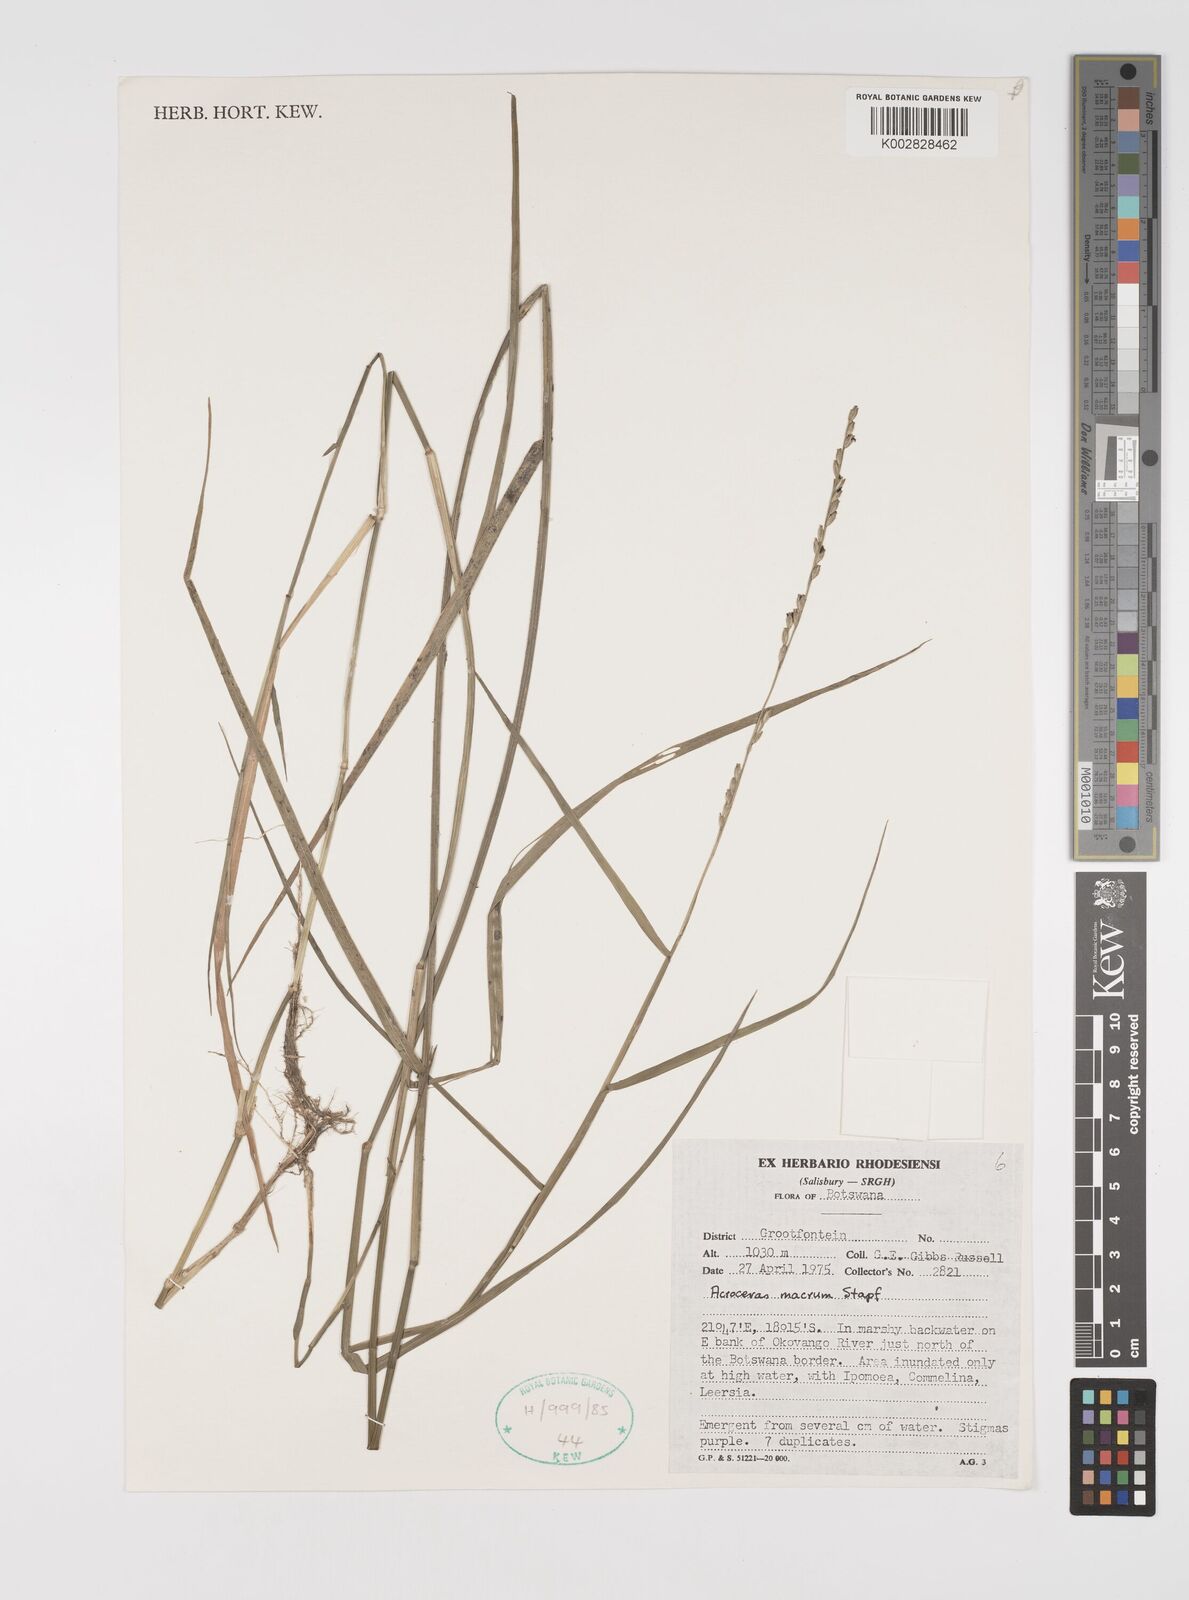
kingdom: Plantae
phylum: Tracheophyta
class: Liliopsida
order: Poales
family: Poaceae
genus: Acroceras
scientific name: Acroceras macrum
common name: Nyl grass
